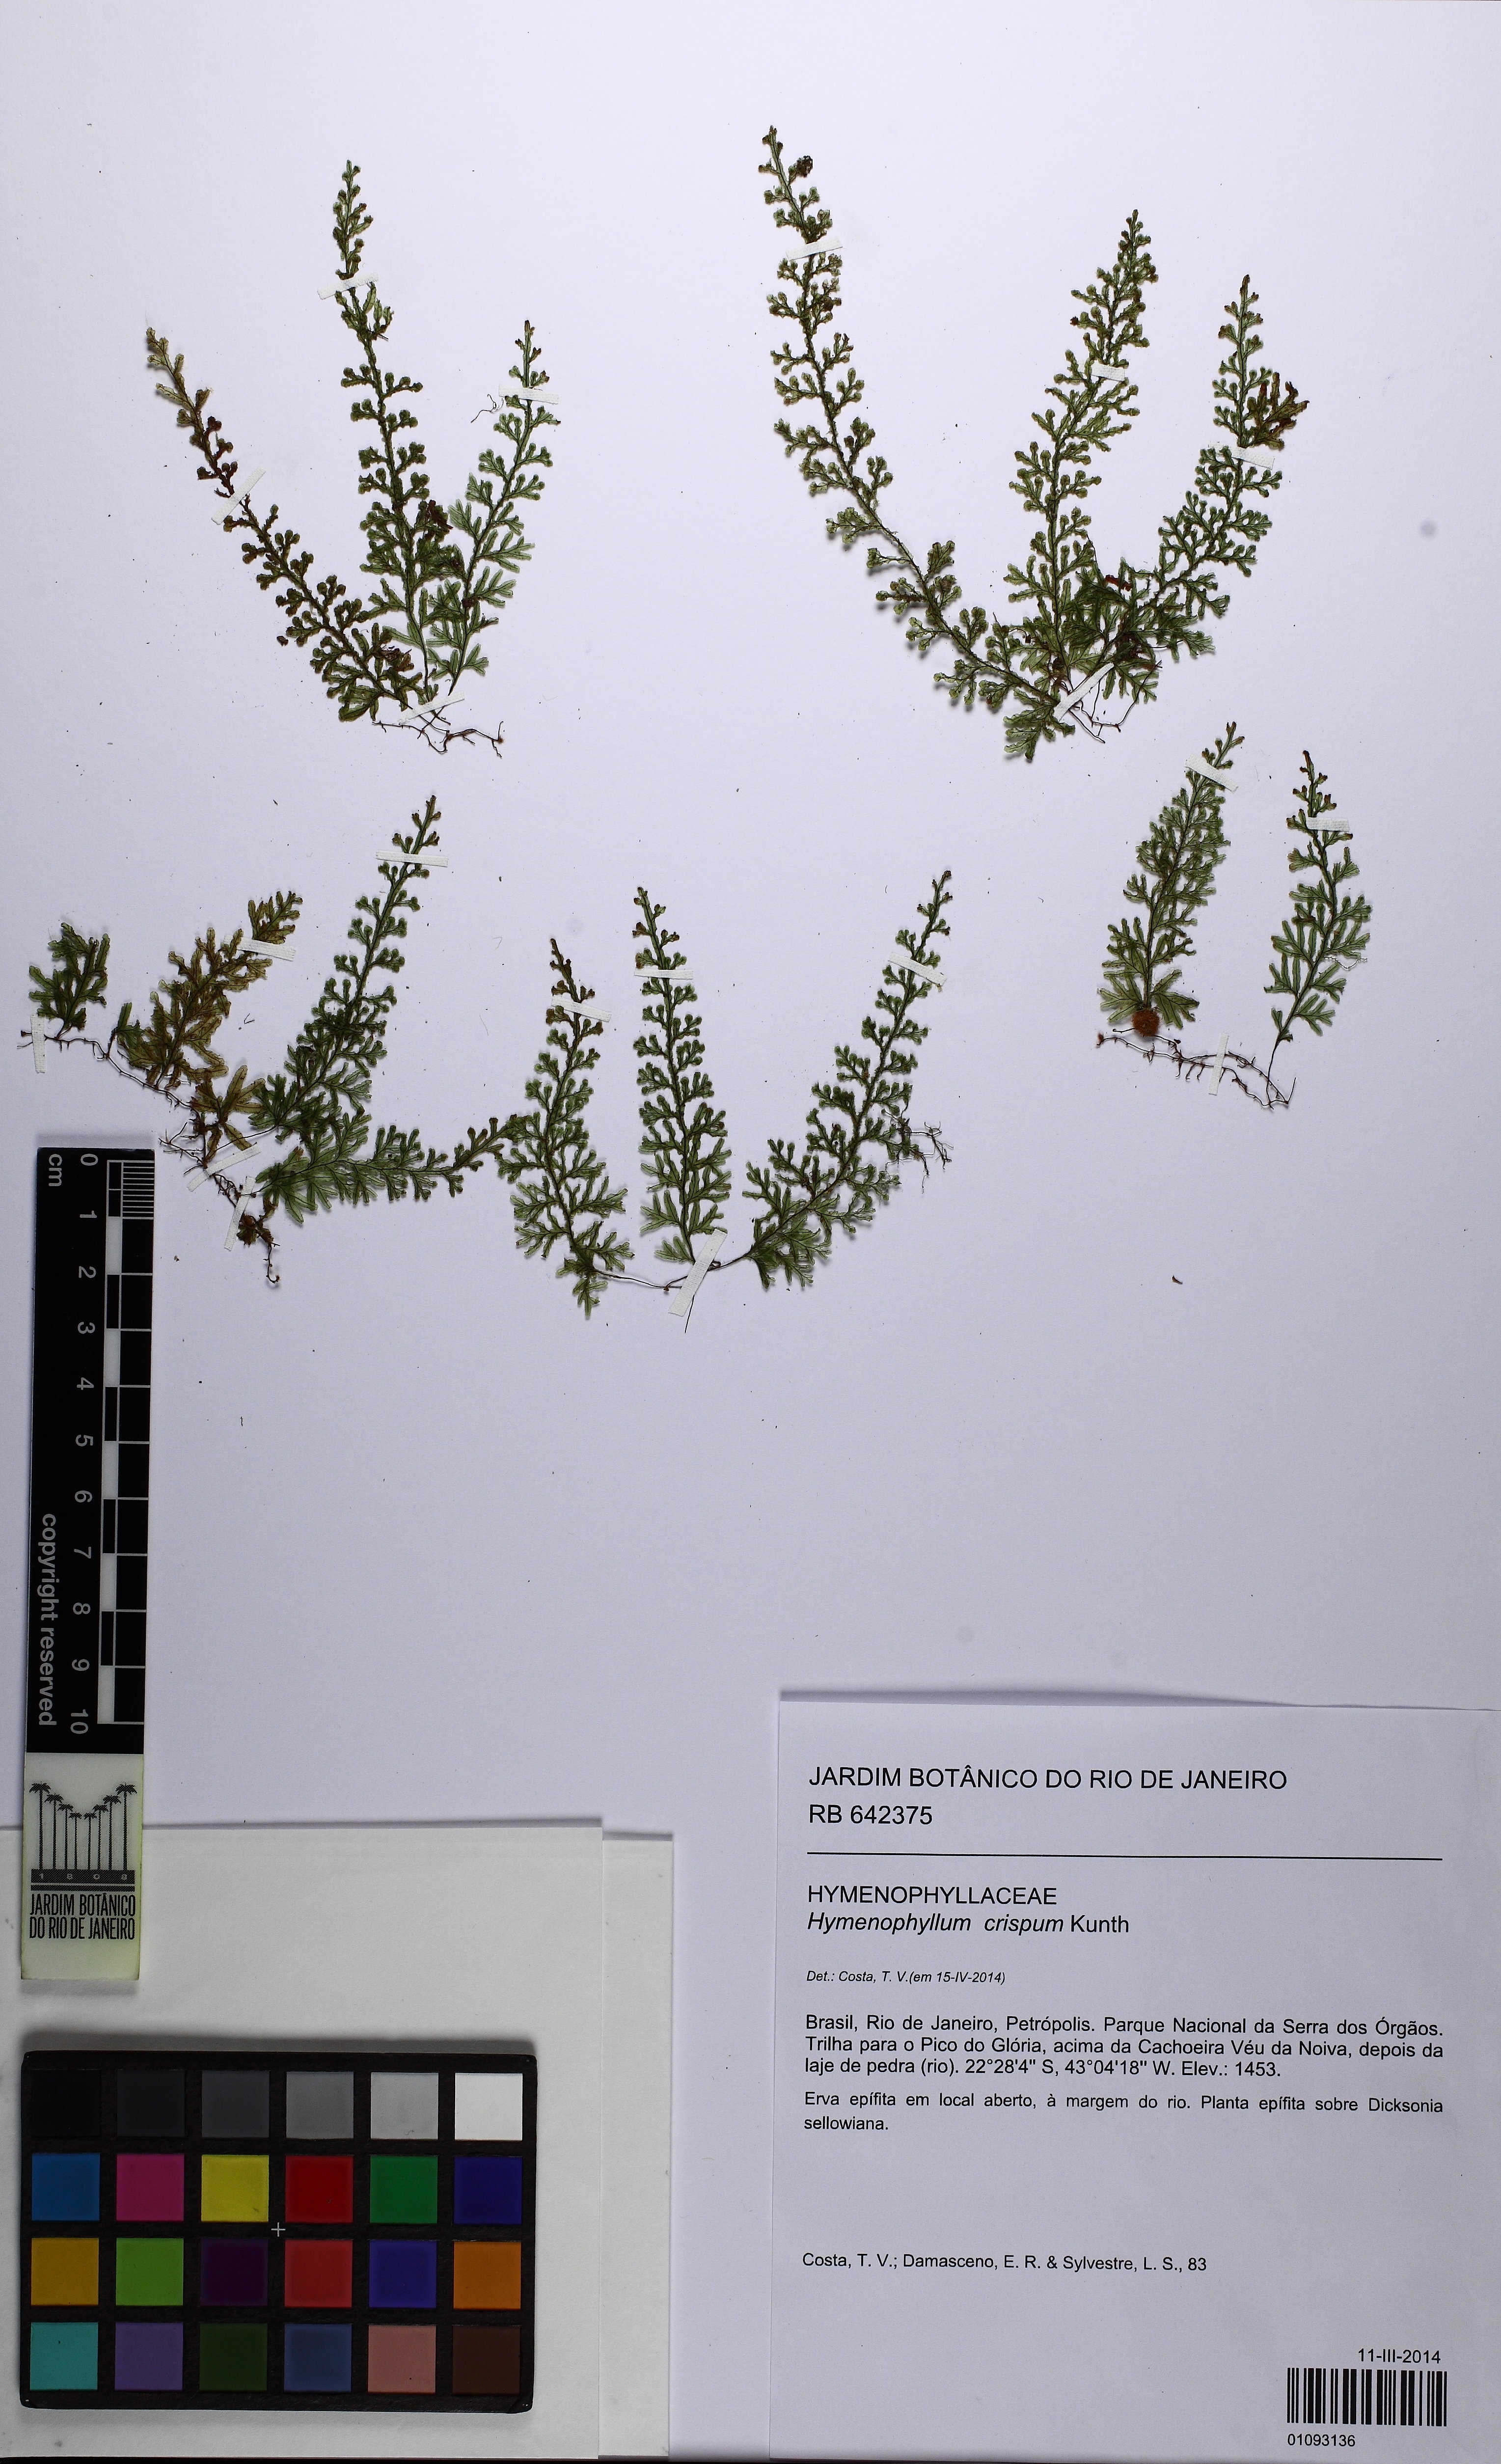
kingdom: Plantae
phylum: Tracheophyta
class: Polypodiopsida
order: Hymenophyllales
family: Hymenophyllaceae
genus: Hymenophyllum
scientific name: Hymenophyllum crispum
